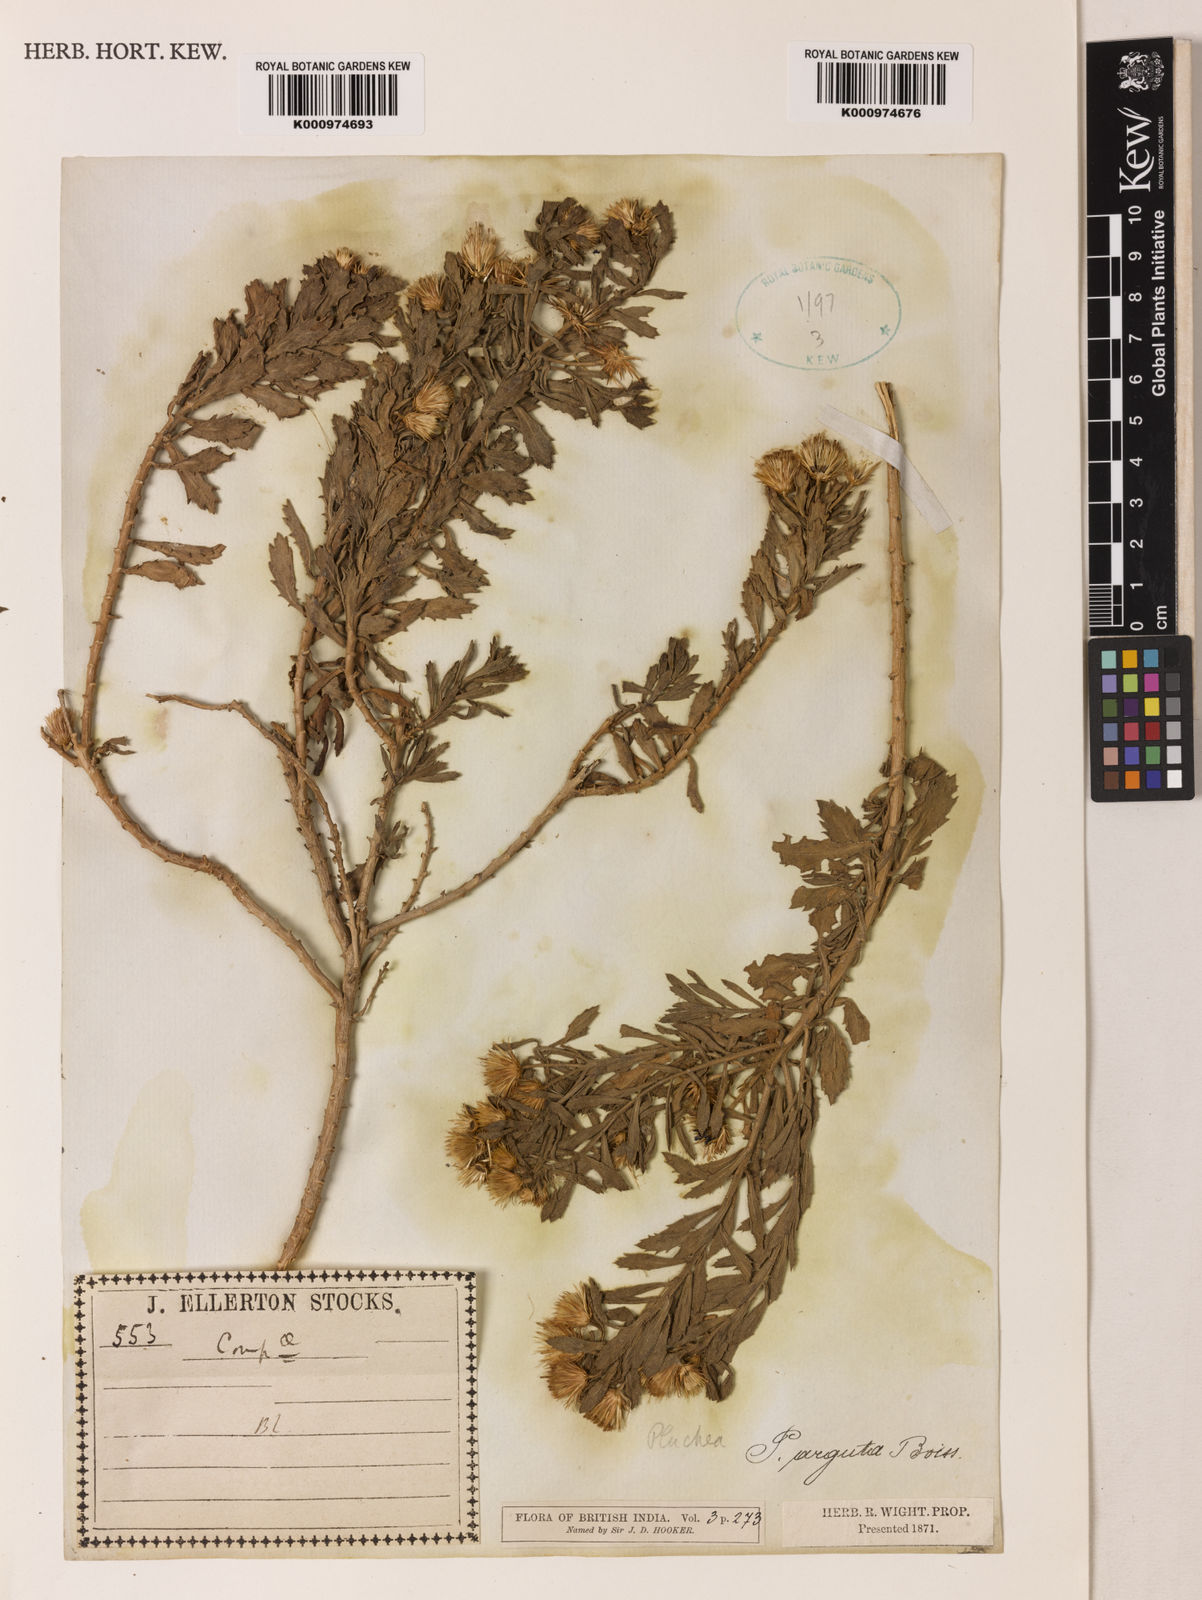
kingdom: Plantae
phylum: Tracheophyta
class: Magnoliopsida
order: Asterales
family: Asteraceae
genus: Pluchea
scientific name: Pluchea arguta
